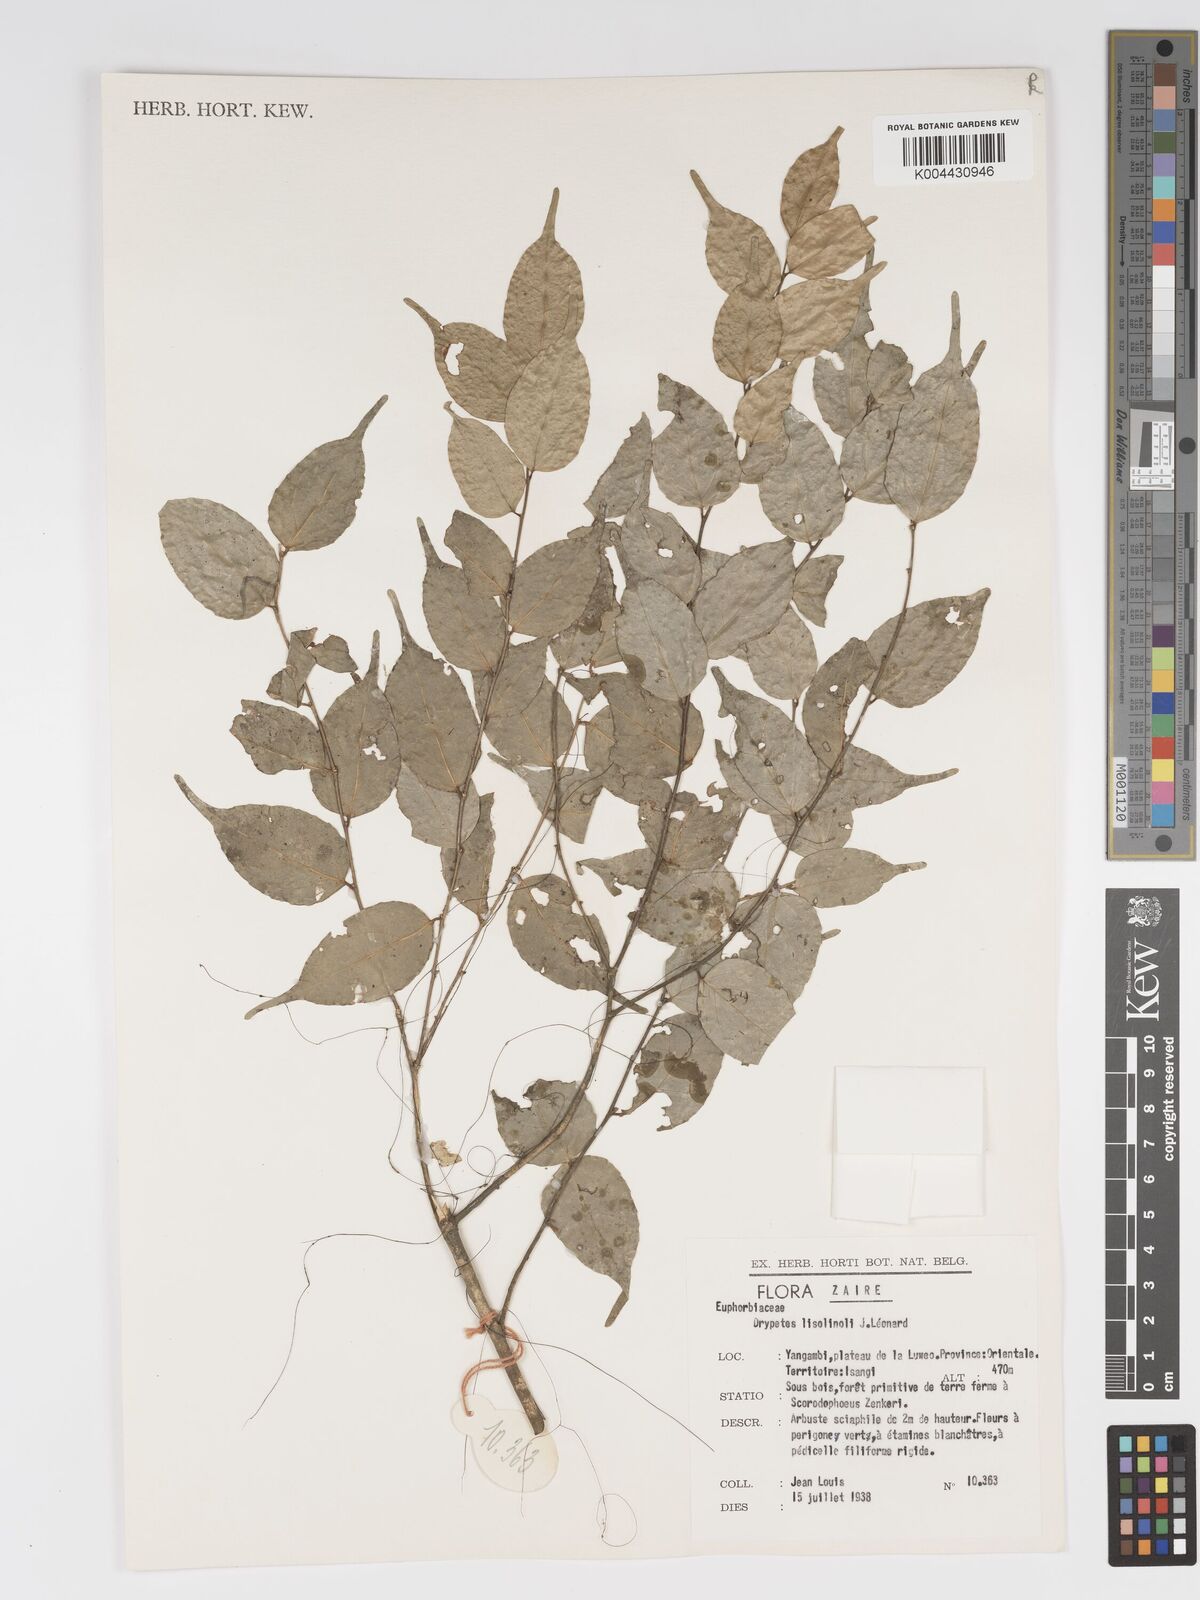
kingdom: Plantae
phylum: Tracheophyta
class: Magnoliopsida
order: Malpighiales
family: Putranjivaceae
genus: Drypetes
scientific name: Drypetes
